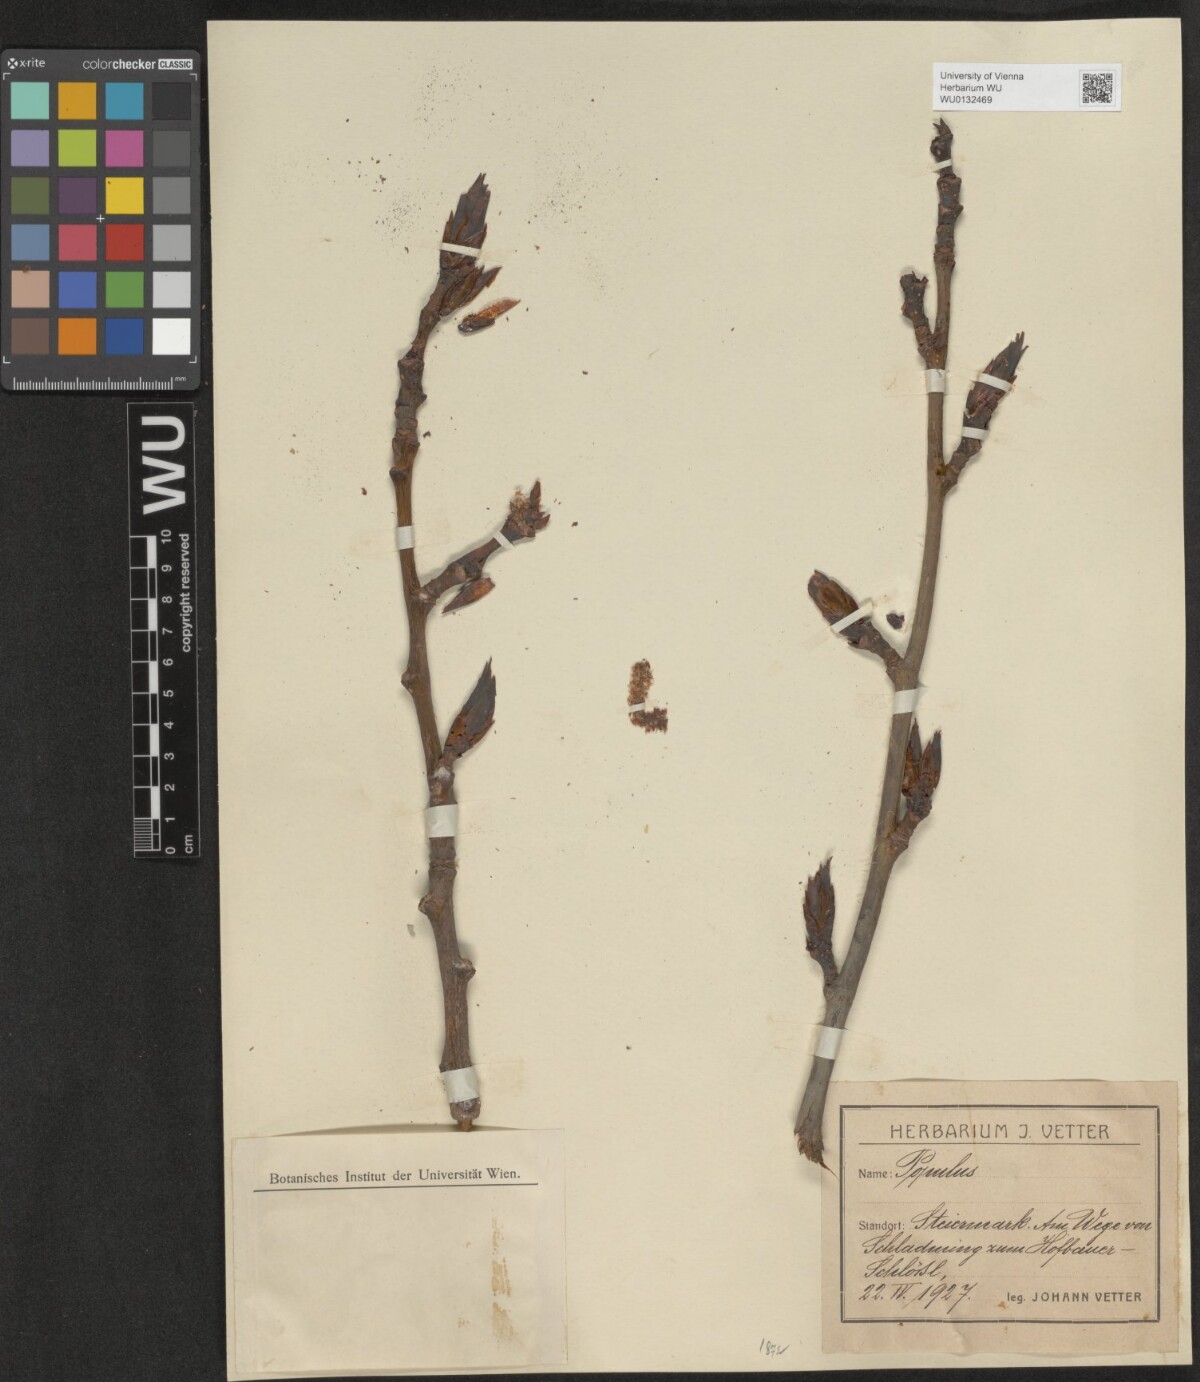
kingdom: Plantae
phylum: Tracheophyta
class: Magnoliopsida
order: Malpighiales
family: Salicaceae
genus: Populus
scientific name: Populus
